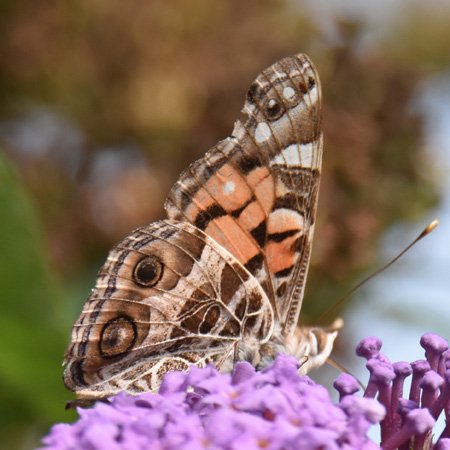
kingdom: Animalia
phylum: Arthropoda
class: Insecta
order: Lepidoptera
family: Nymphalidae
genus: Vanessa
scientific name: Vanessa virginiensis
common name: American Lady
